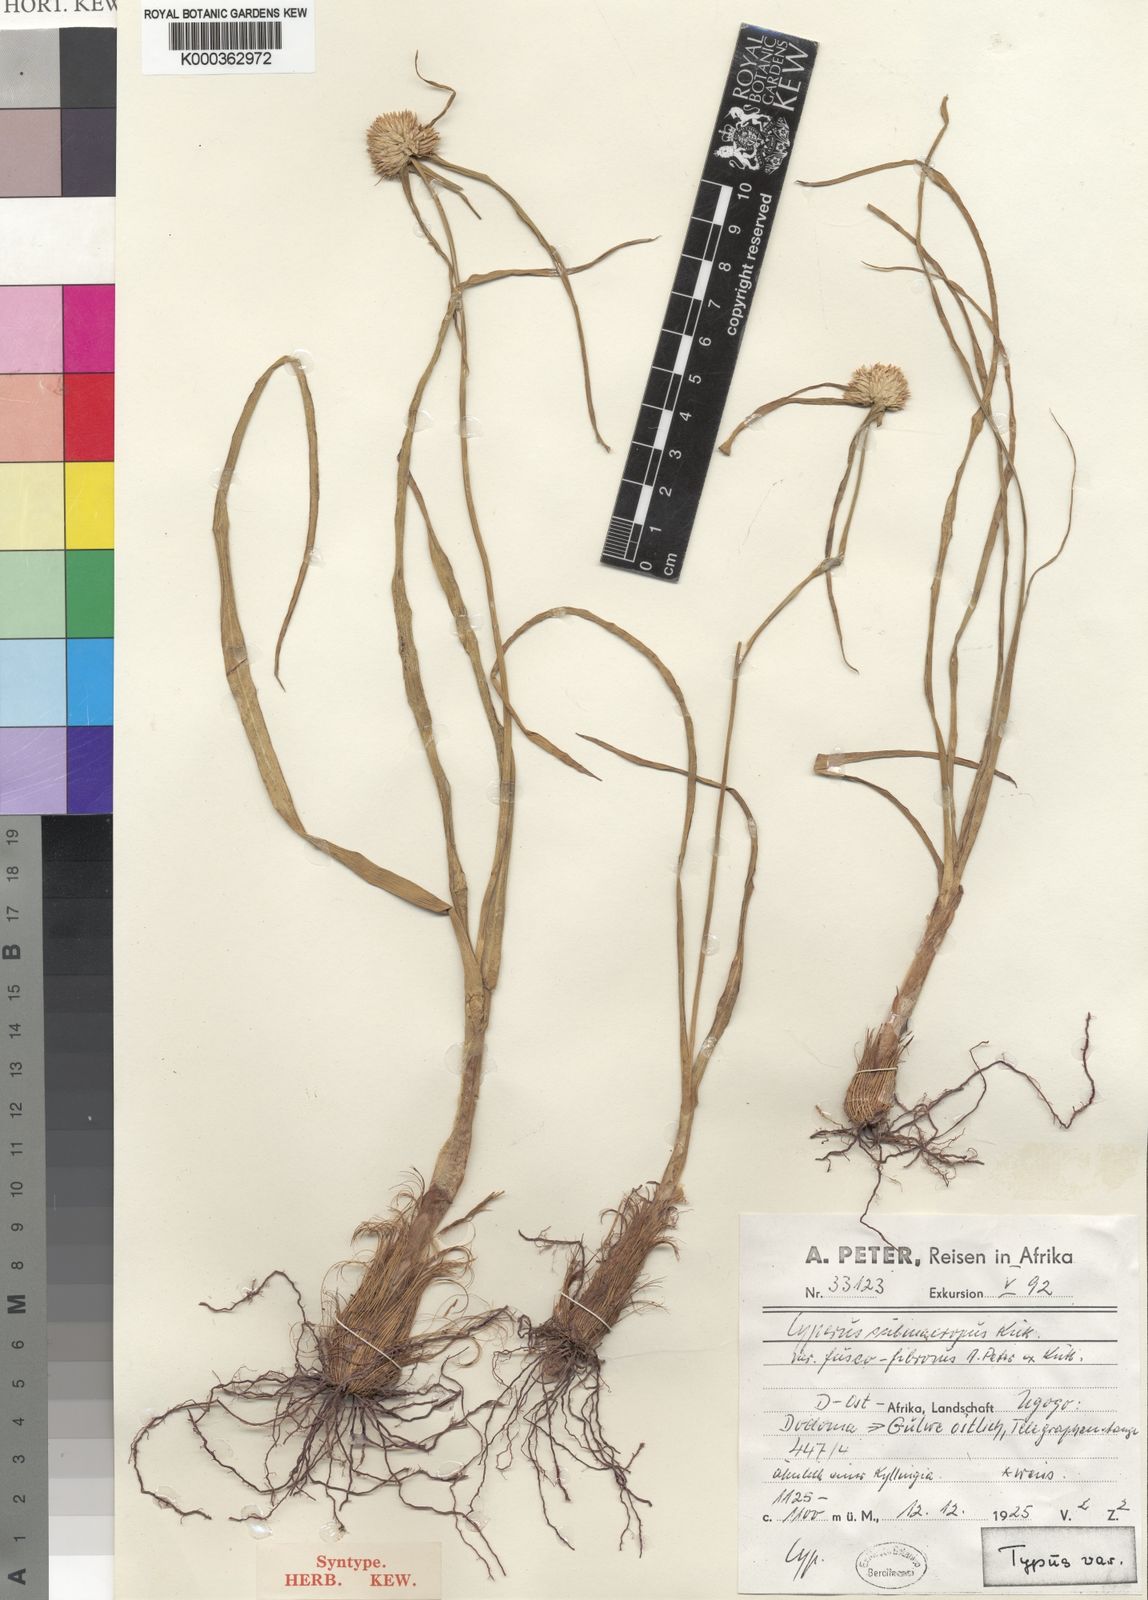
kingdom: Plantae
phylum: Tracheophyta
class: Liliopsida
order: Poales
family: Cyperaceae
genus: Cyperus
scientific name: Cyperus
